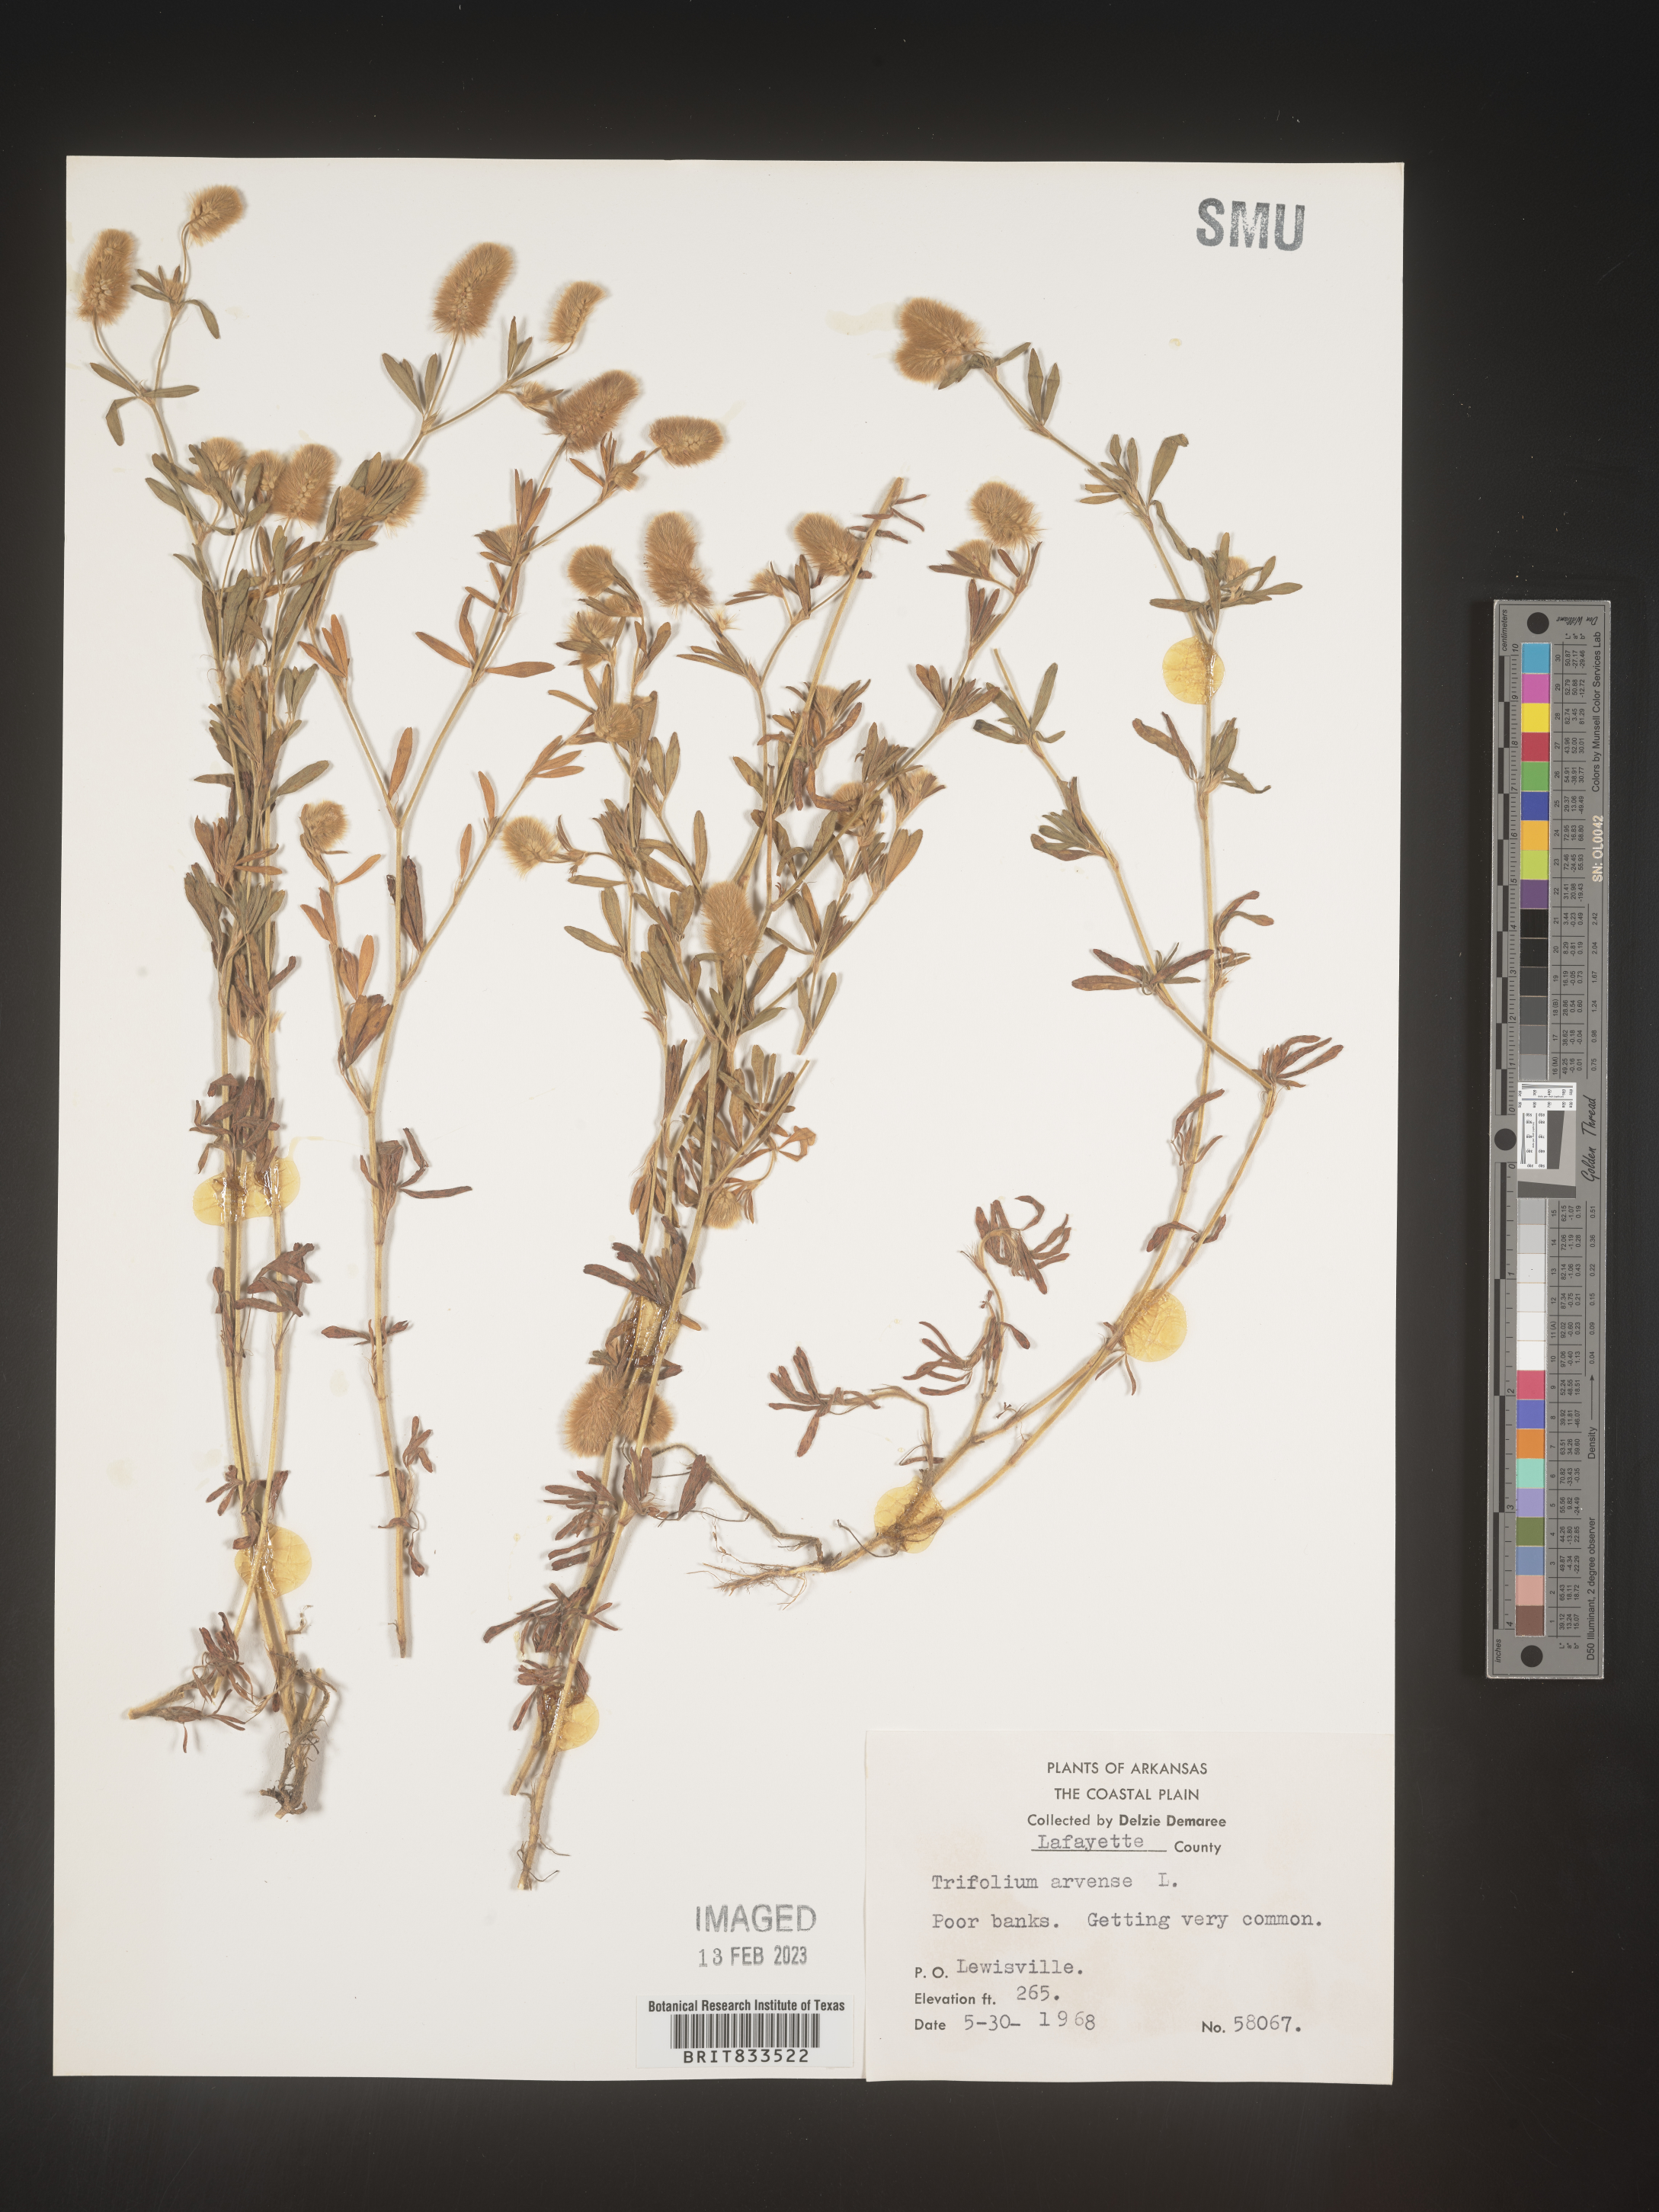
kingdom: Plantae
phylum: Tracheophyta
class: Magnoliopsida
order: Fabales
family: Fabaceae
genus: Trifolium
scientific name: Trifolium arvense
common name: Hare's-foot clover
